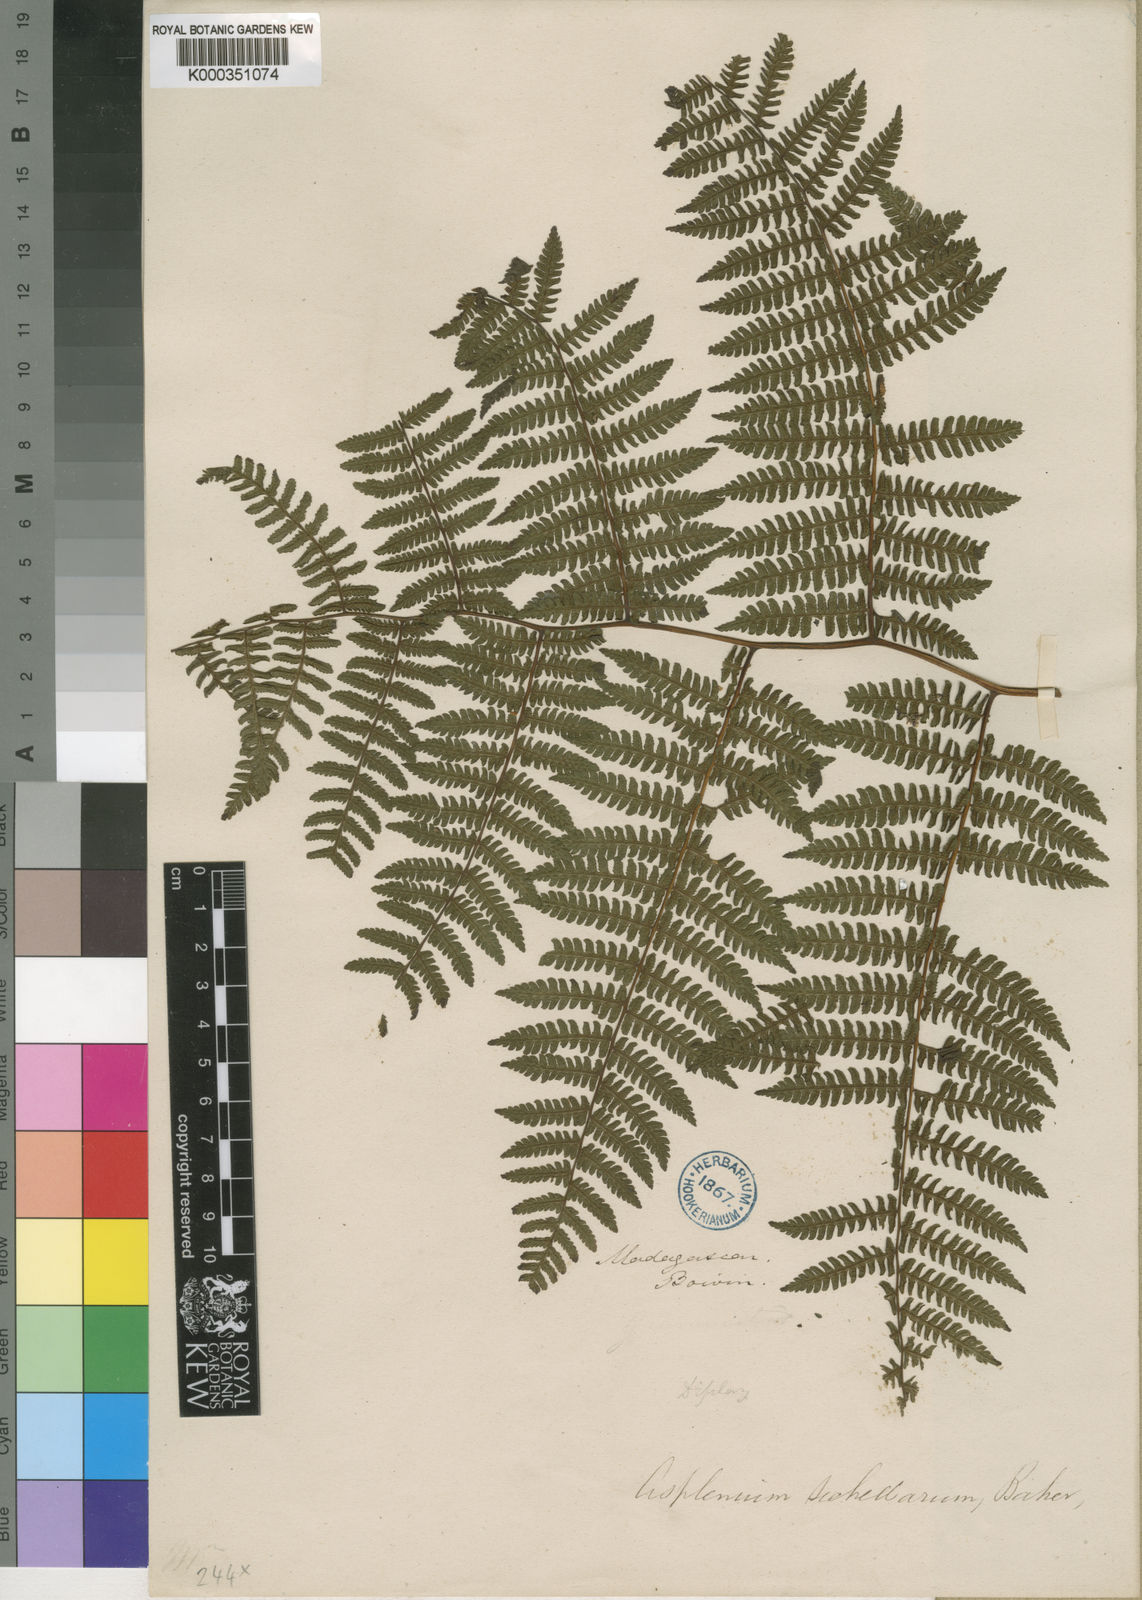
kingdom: Plantae
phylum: Tracheophyta
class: Polypodiopsida
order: Polypodiales
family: Athyriaceae
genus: Diplazium
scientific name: Diplazium polypodioides
